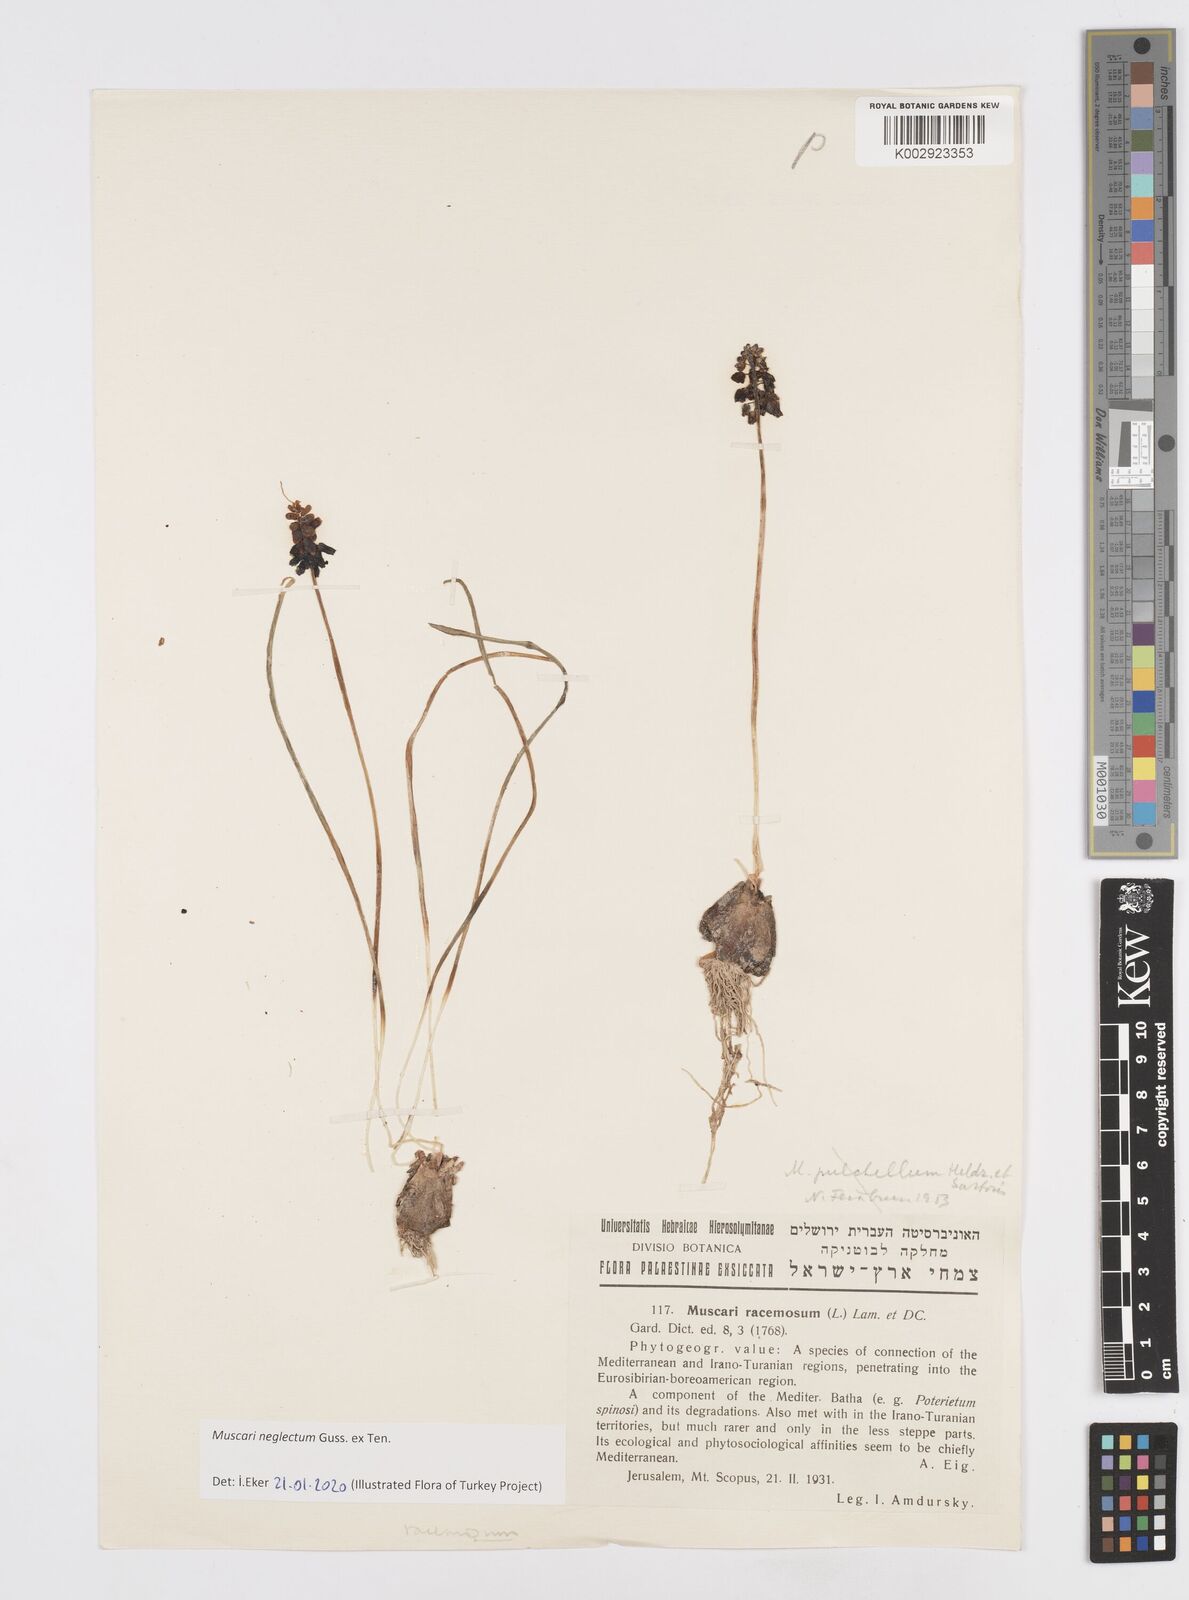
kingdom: Plantae
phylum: Tracheophyta
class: Liliopsida
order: Asparagales
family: Asparagaceae
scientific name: Asparagaceae
